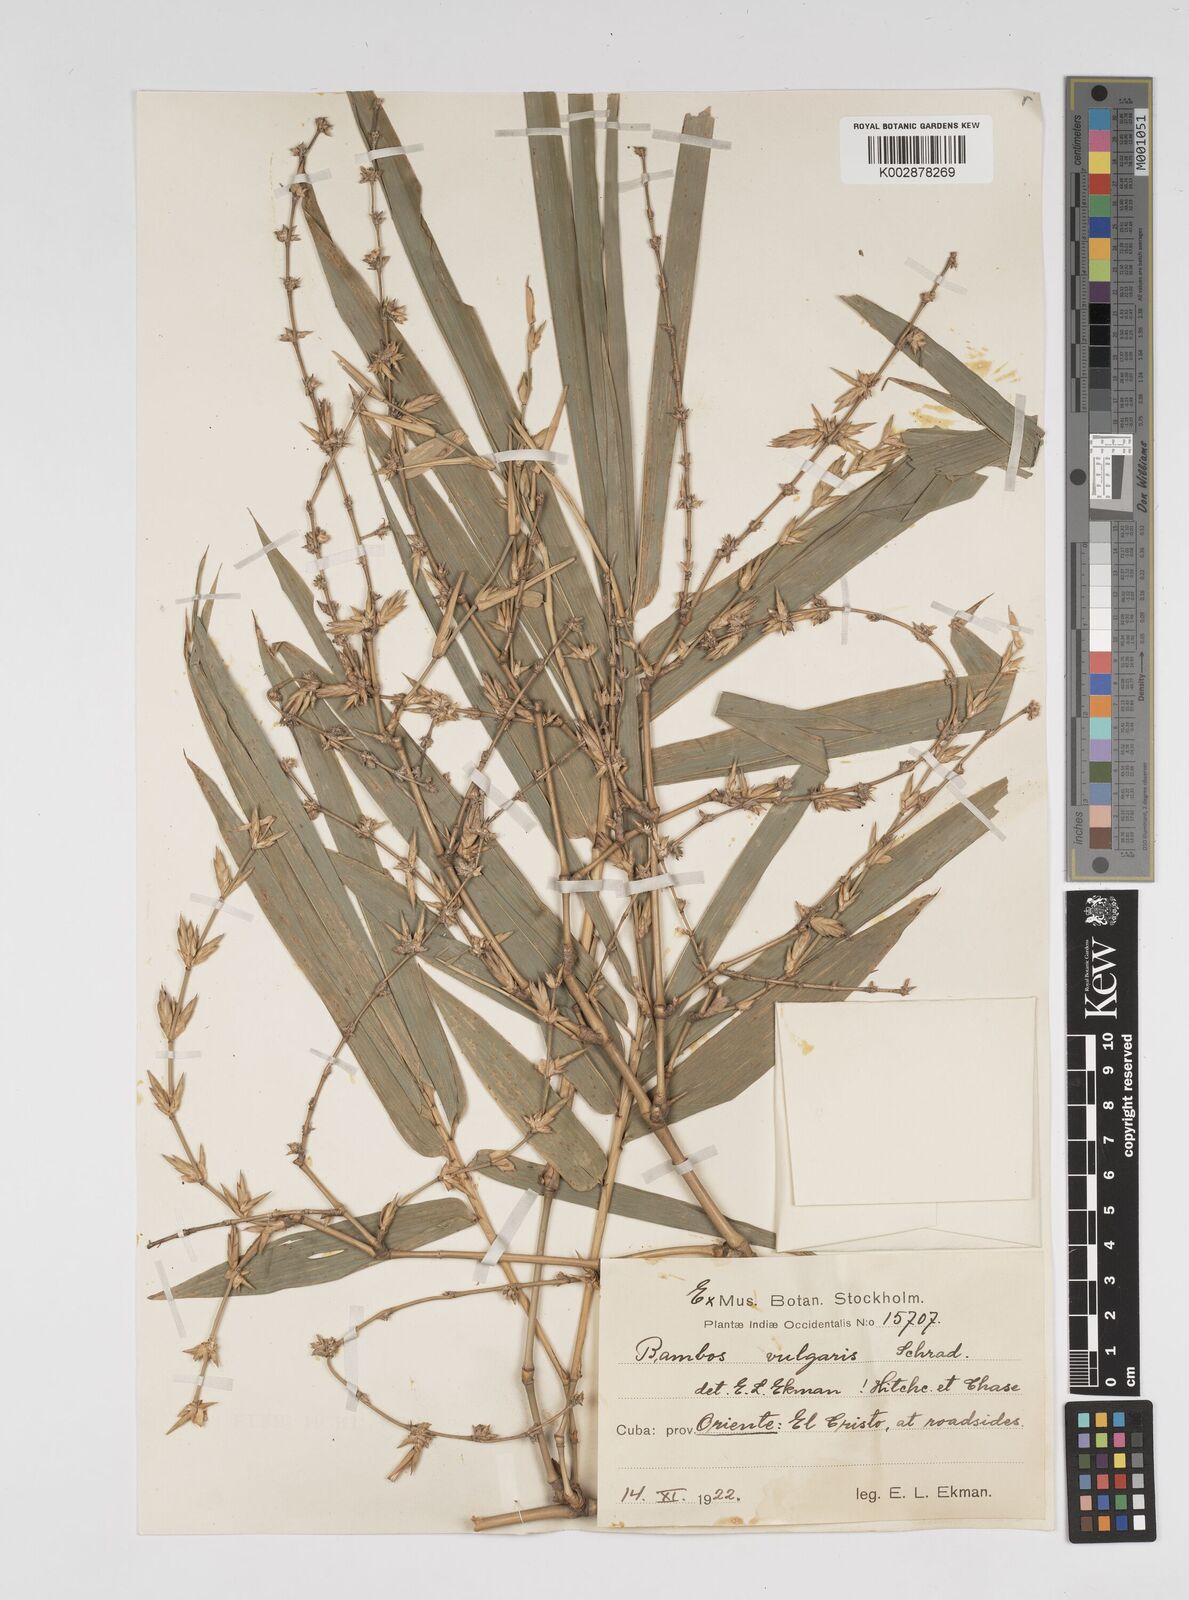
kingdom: Plantae
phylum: Tracheophyta
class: Liliopsida
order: Poales
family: Poaceae
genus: Bambusa
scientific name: Bambusa vulgaris
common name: Common bamboo
